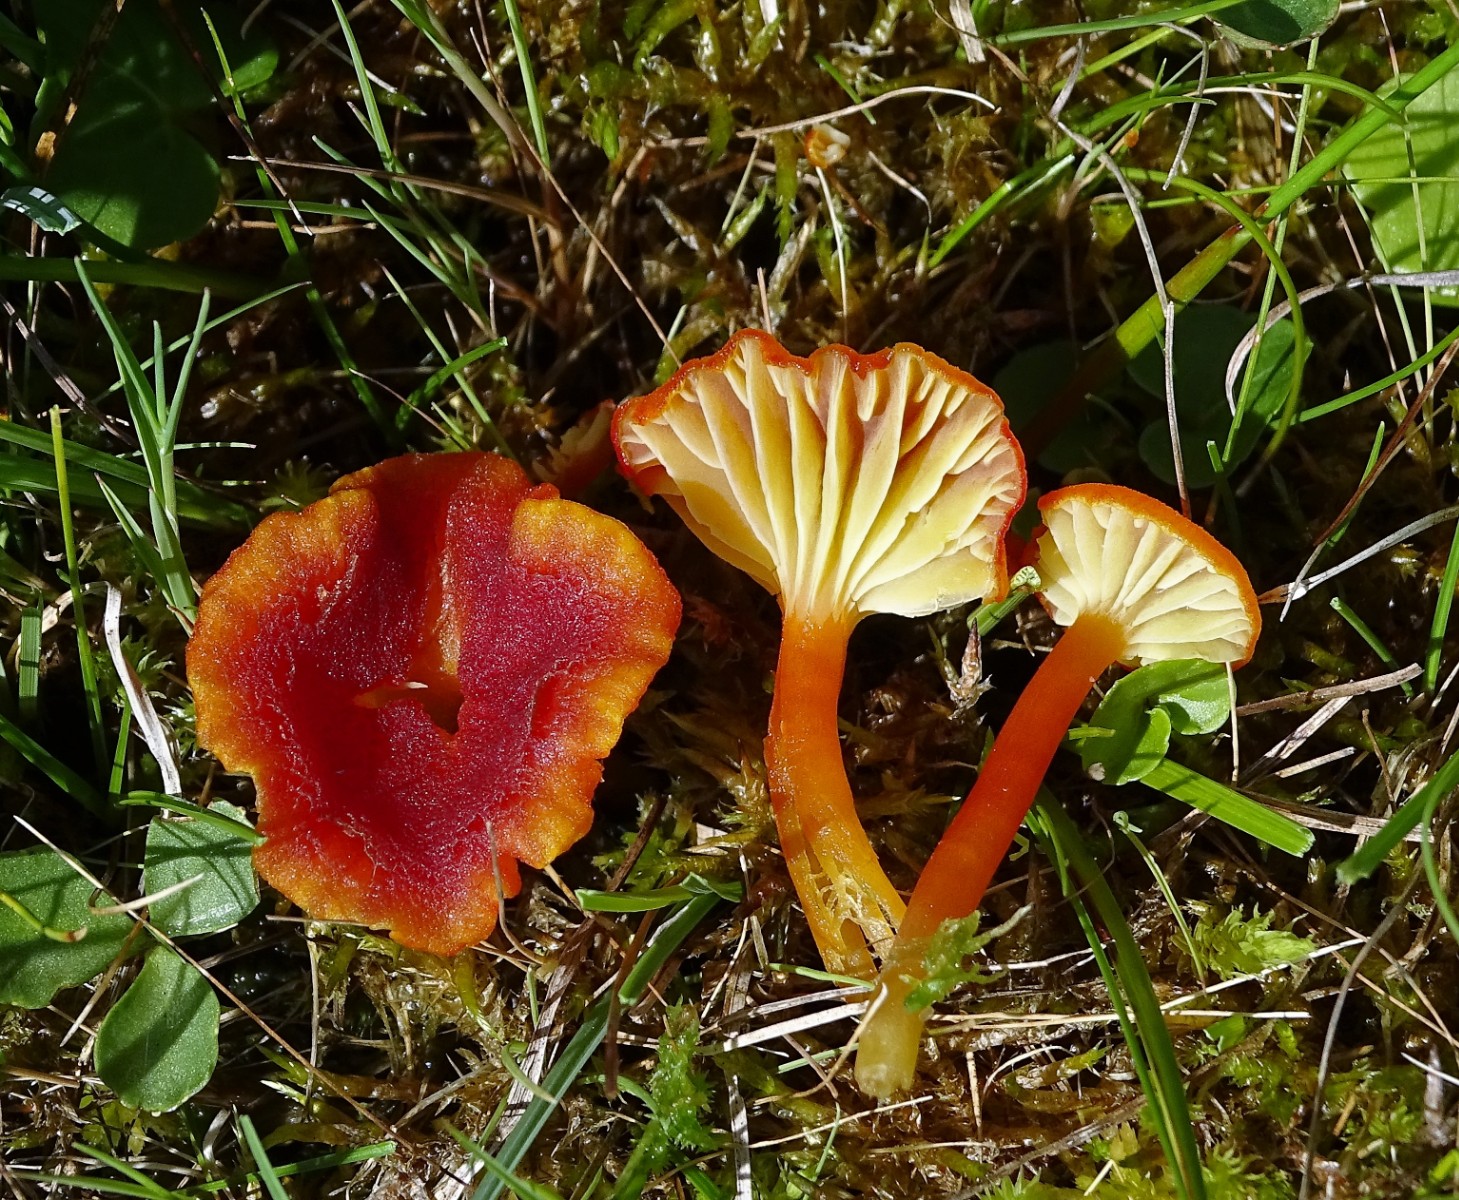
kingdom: Fungi
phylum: Basidiomycota
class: Agaricomycetes
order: Agaricales
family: Hygrophoraceae
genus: Hygrocybe
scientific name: Hygrocybe
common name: vokshat
